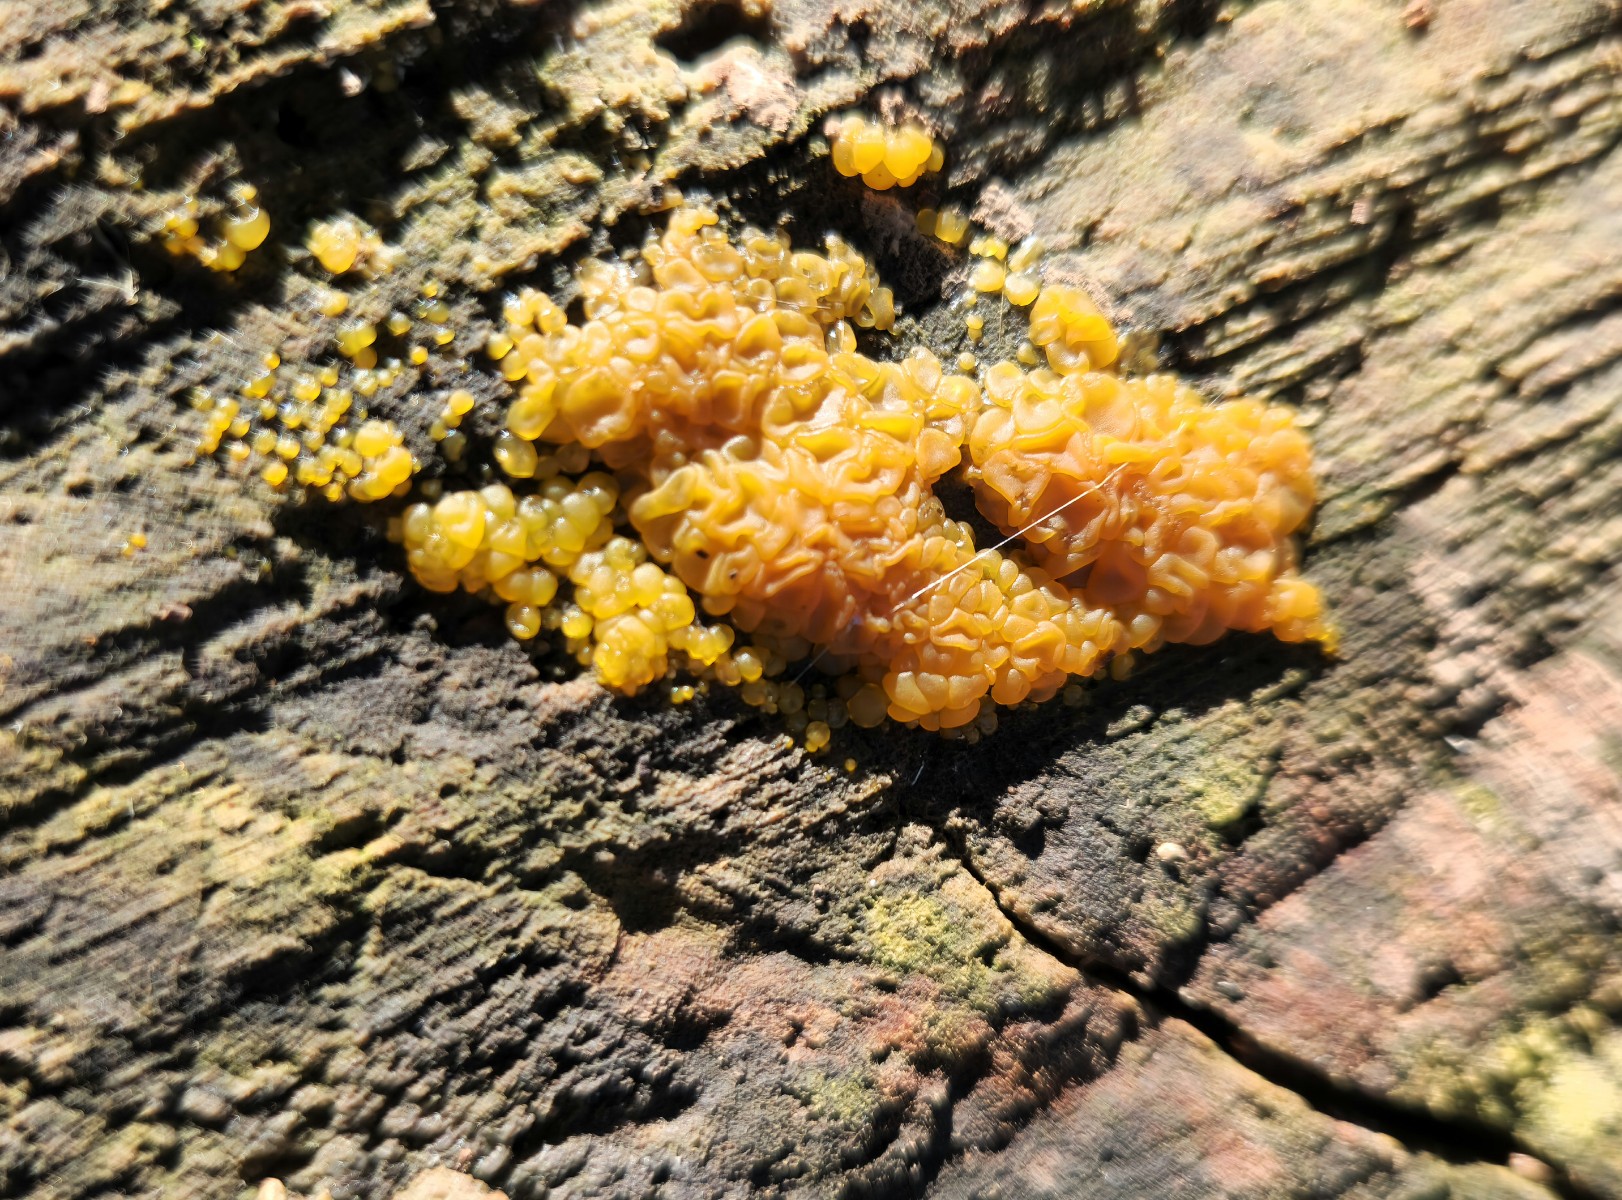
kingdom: Fungi
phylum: Basidiomycota
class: Dacrymycetes
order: Dacrymycetales
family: Dacrymycetaceae
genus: Dacrymyces
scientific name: Dacrymyces
